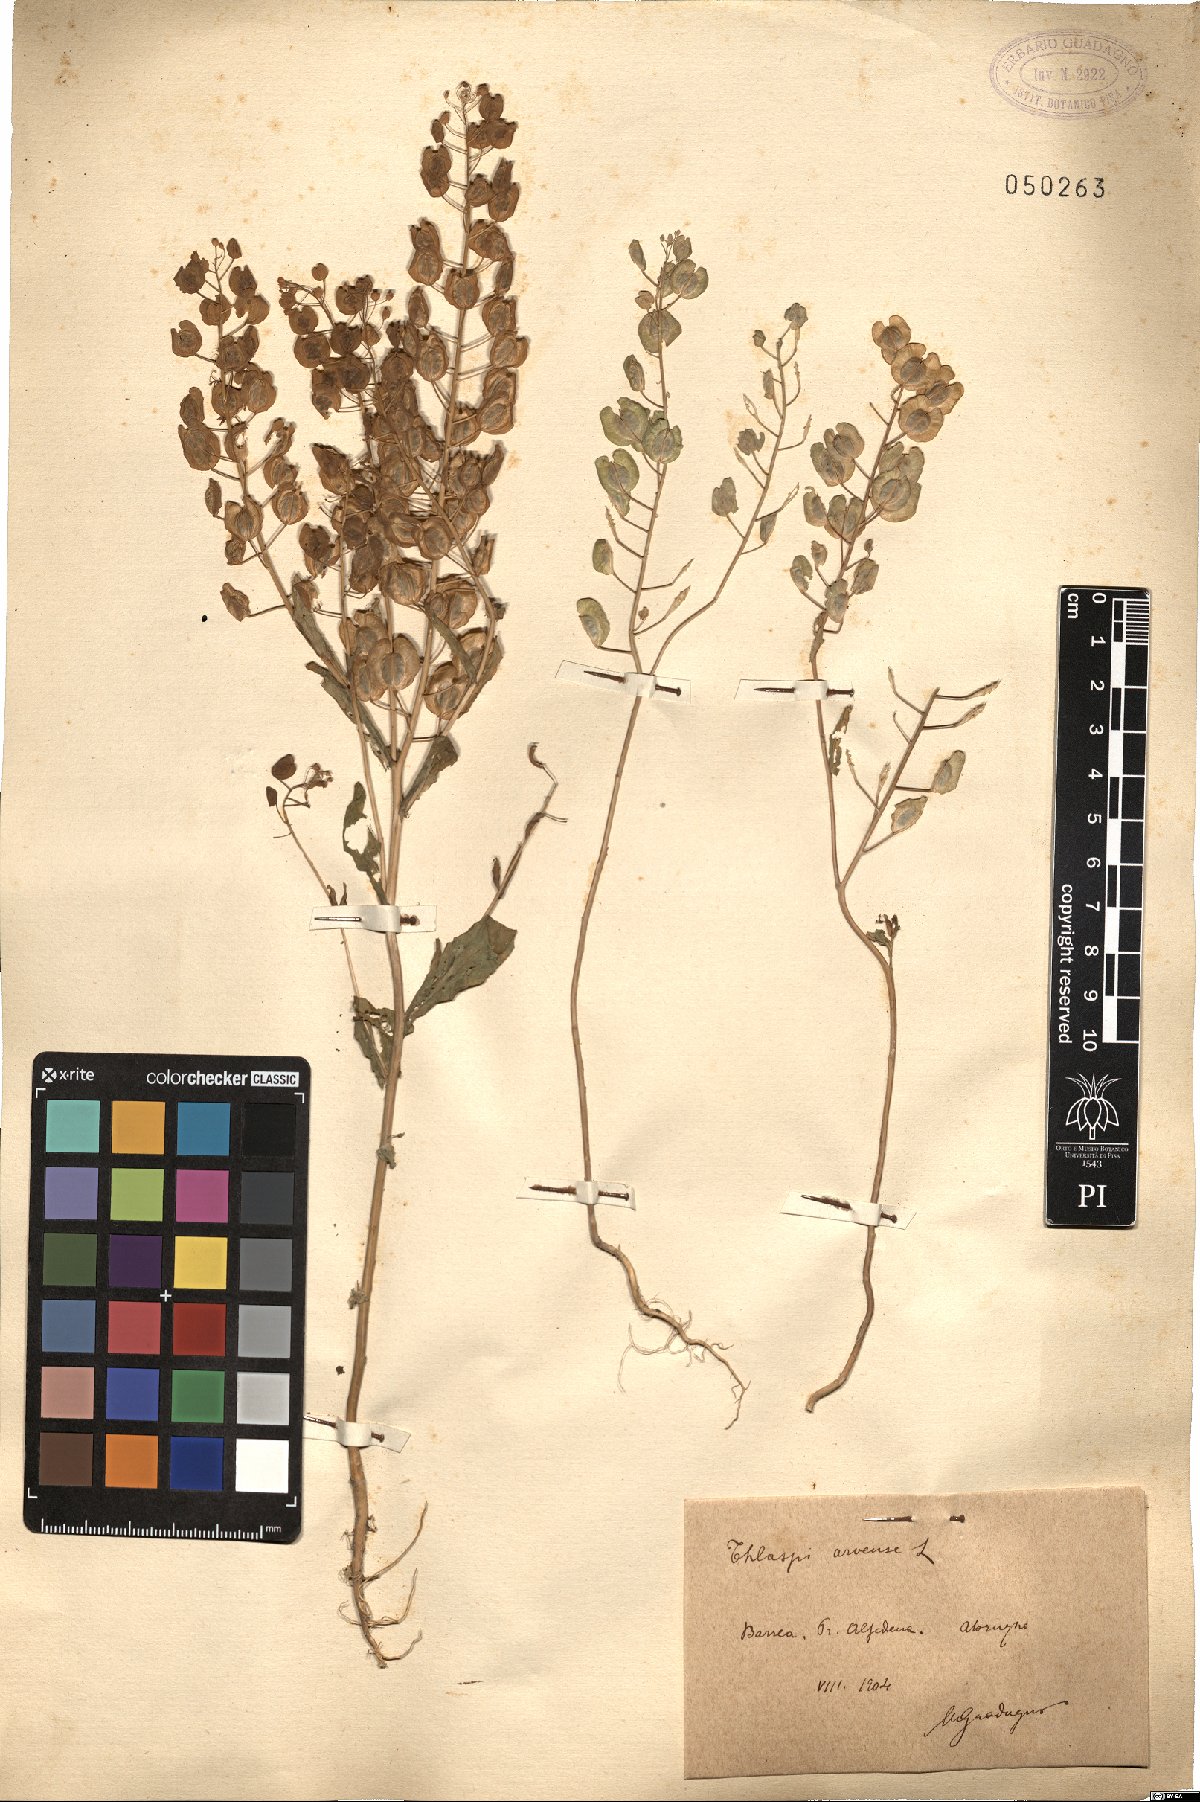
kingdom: Plantae
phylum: Tracheophyta
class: Magnoliopsida
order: Brassicales
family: Brassicaceae
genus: Thlaspi
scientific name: Thlaspi arvense
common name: Field pennycress
